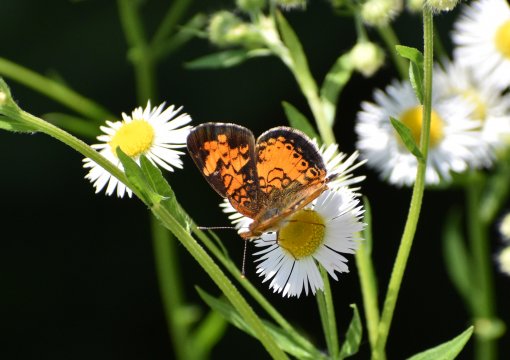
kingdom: Animalia
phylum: Arthropoda
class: Insecta
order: Lepidoptera
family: Nymphalidae
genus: Phyciodes
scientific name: Phyciodes tharos
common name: Northern Crescent
